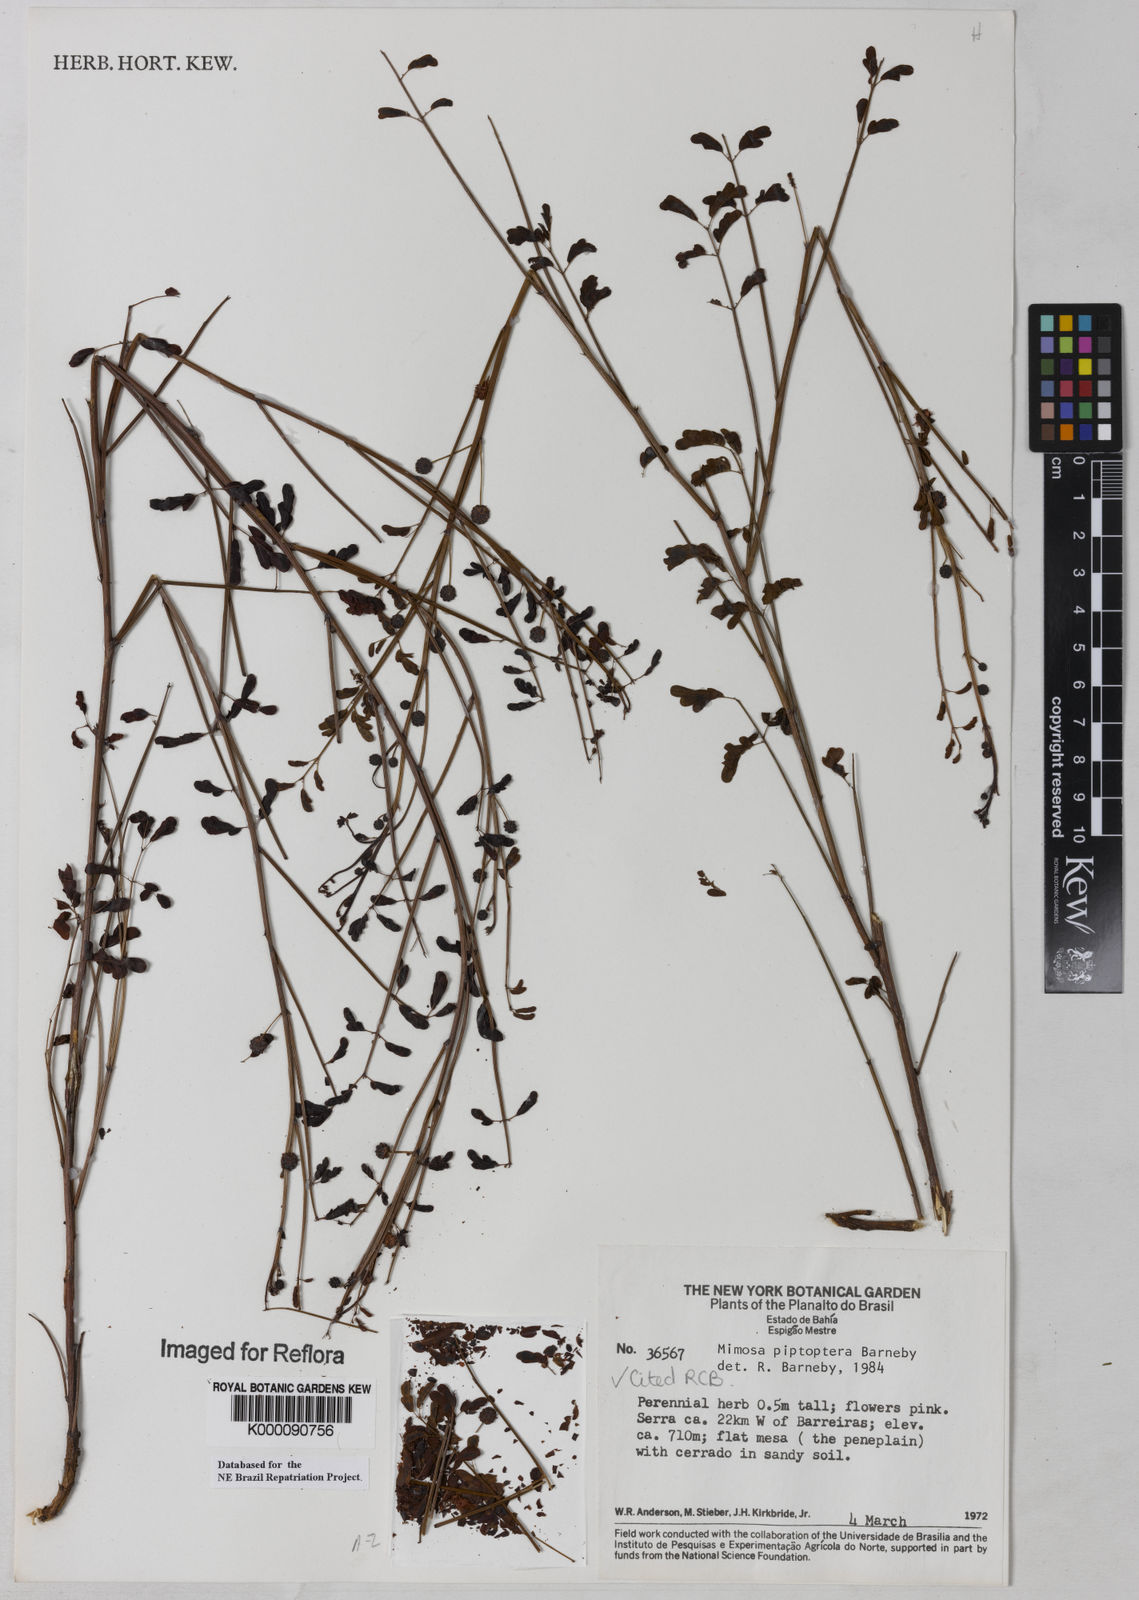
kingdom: Plantae
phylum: Tracheophyta
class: Magnoliopsida
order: Fabales
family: Fabaceae
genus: Mimosa
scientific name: Mimosa piptoptera
